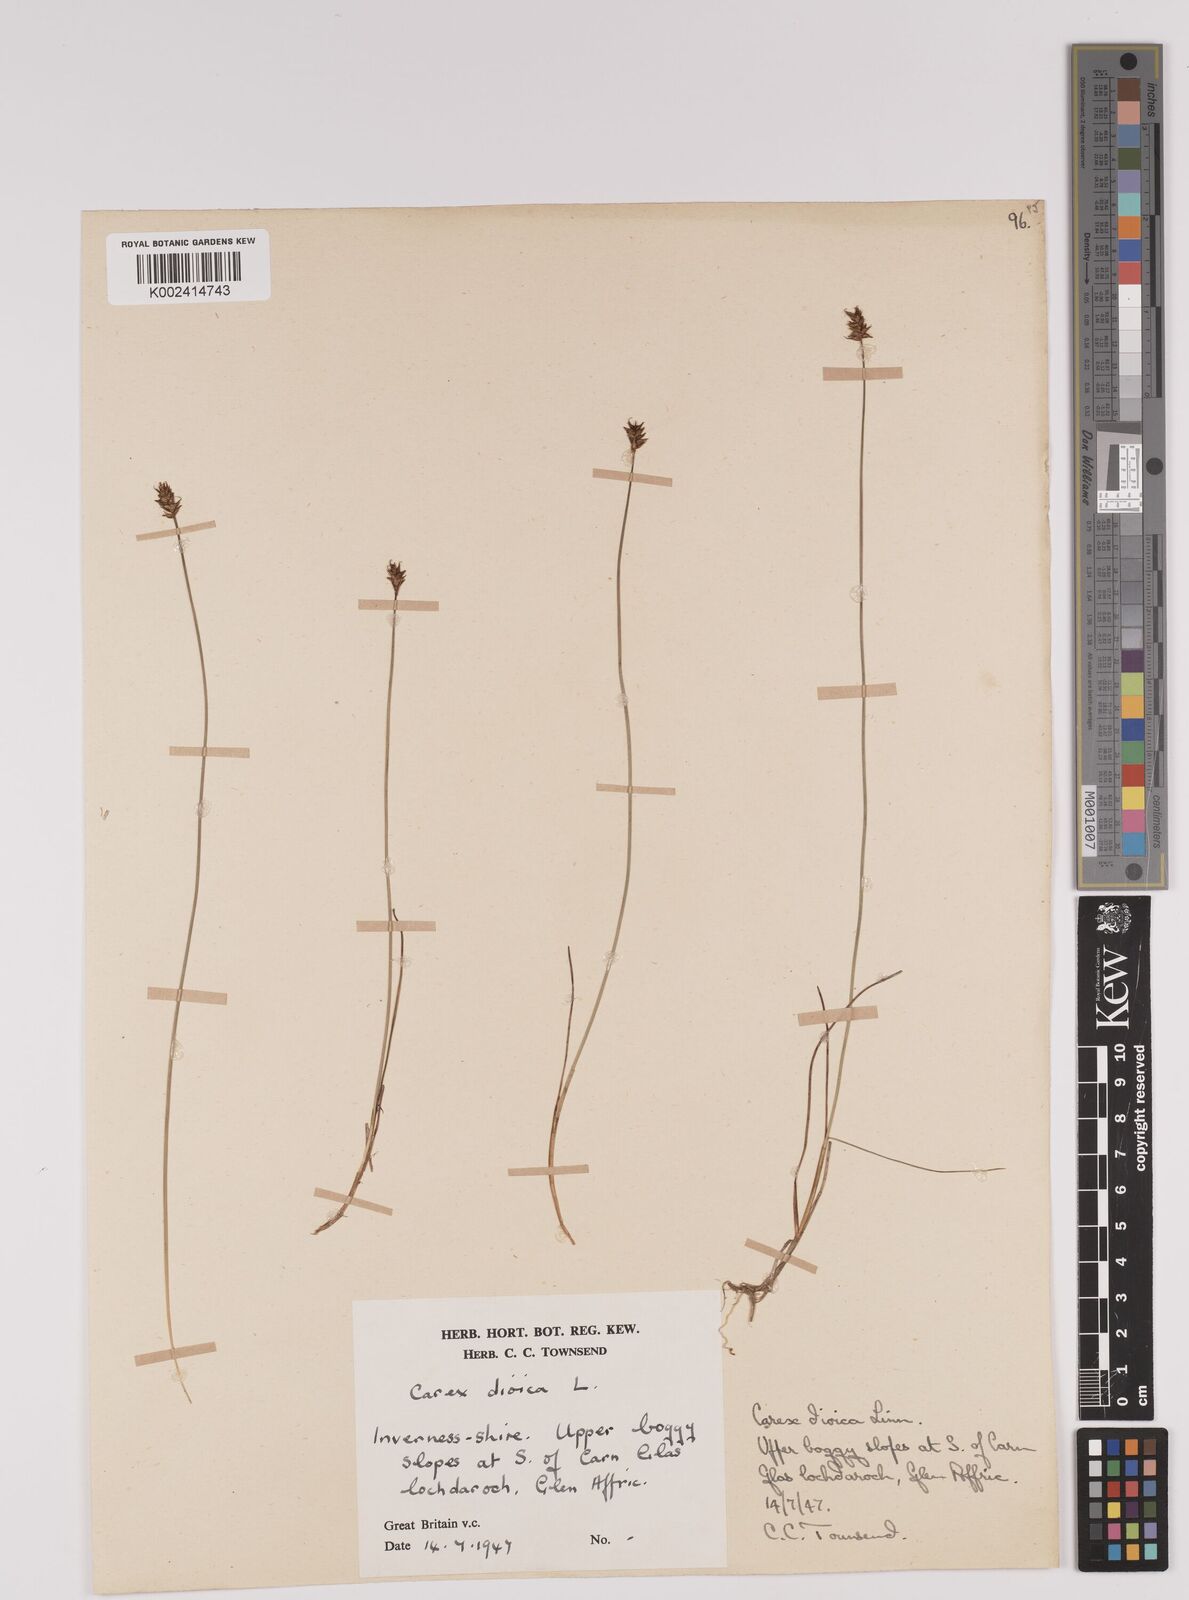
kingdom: Plantae
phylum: Tracheophyta
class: Liliopsida
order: Poales
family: Cyperaceae
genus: Carex
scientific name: Carex dioica
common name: Dioecious sedge
